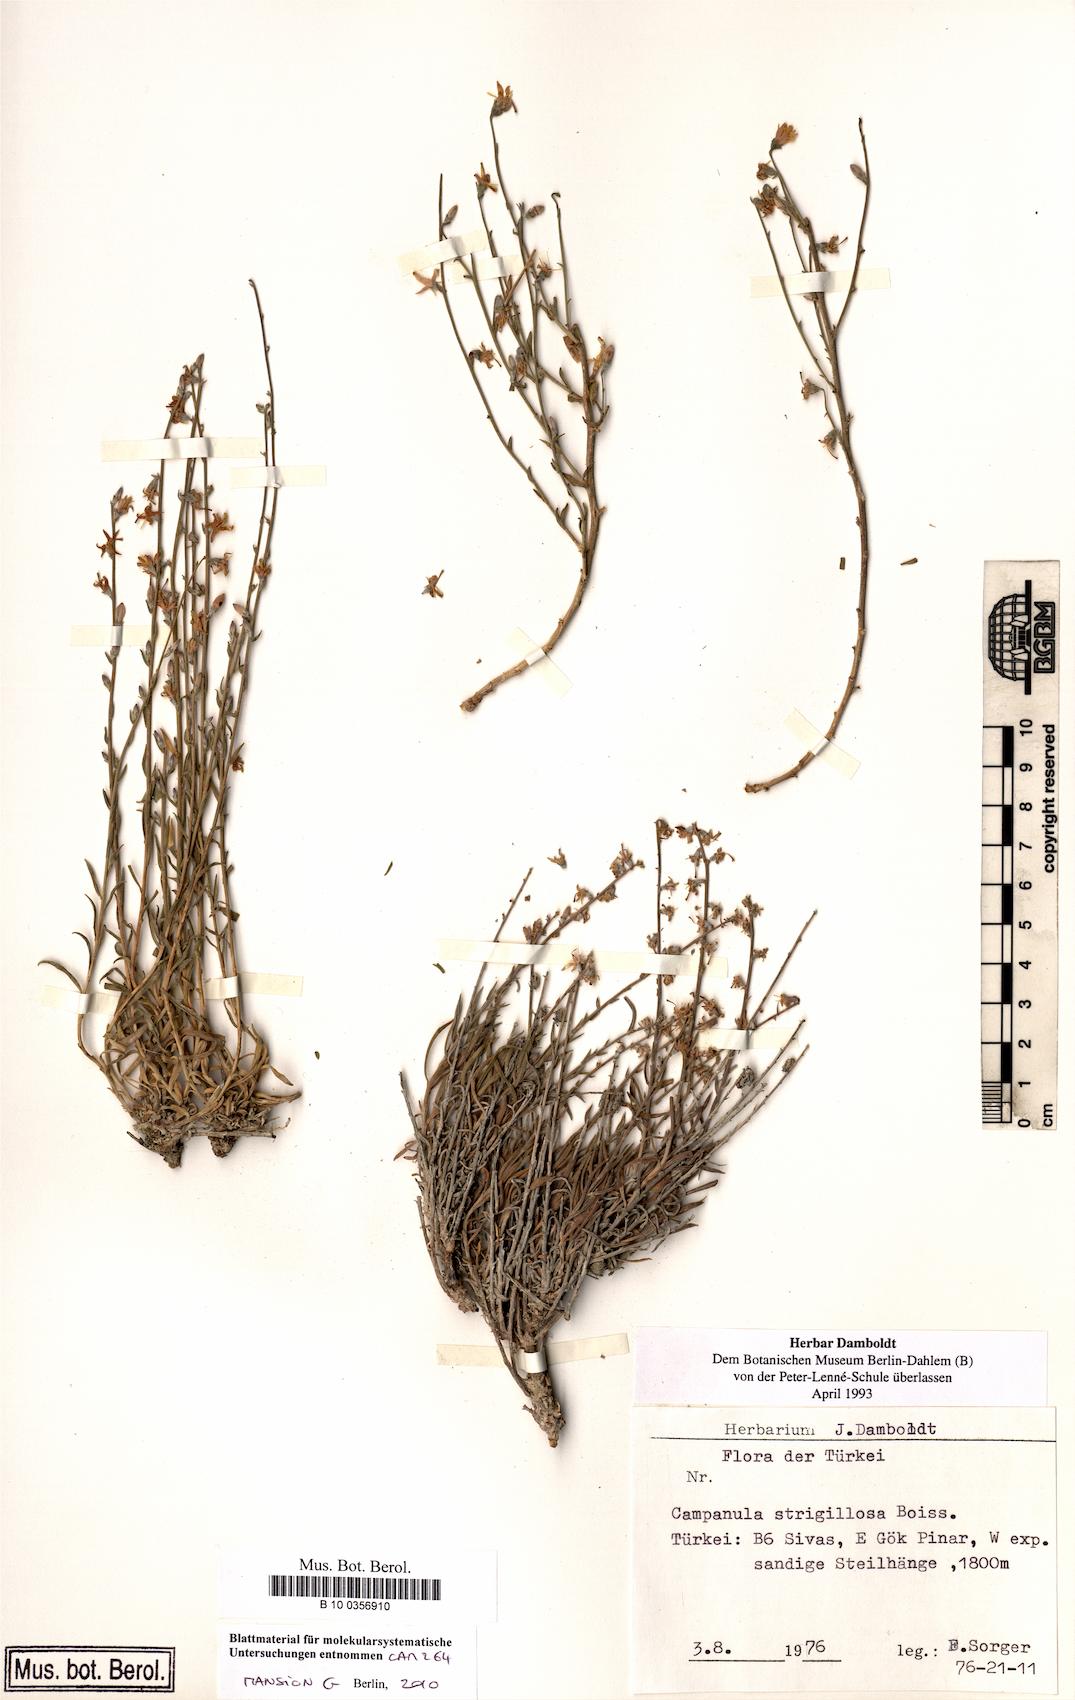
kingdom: Plantae
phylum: Tracheophyta
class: Magnoliopsida
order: Asterales
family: Campanulaceae
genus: Campanula
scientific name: Campanula strigillosa
